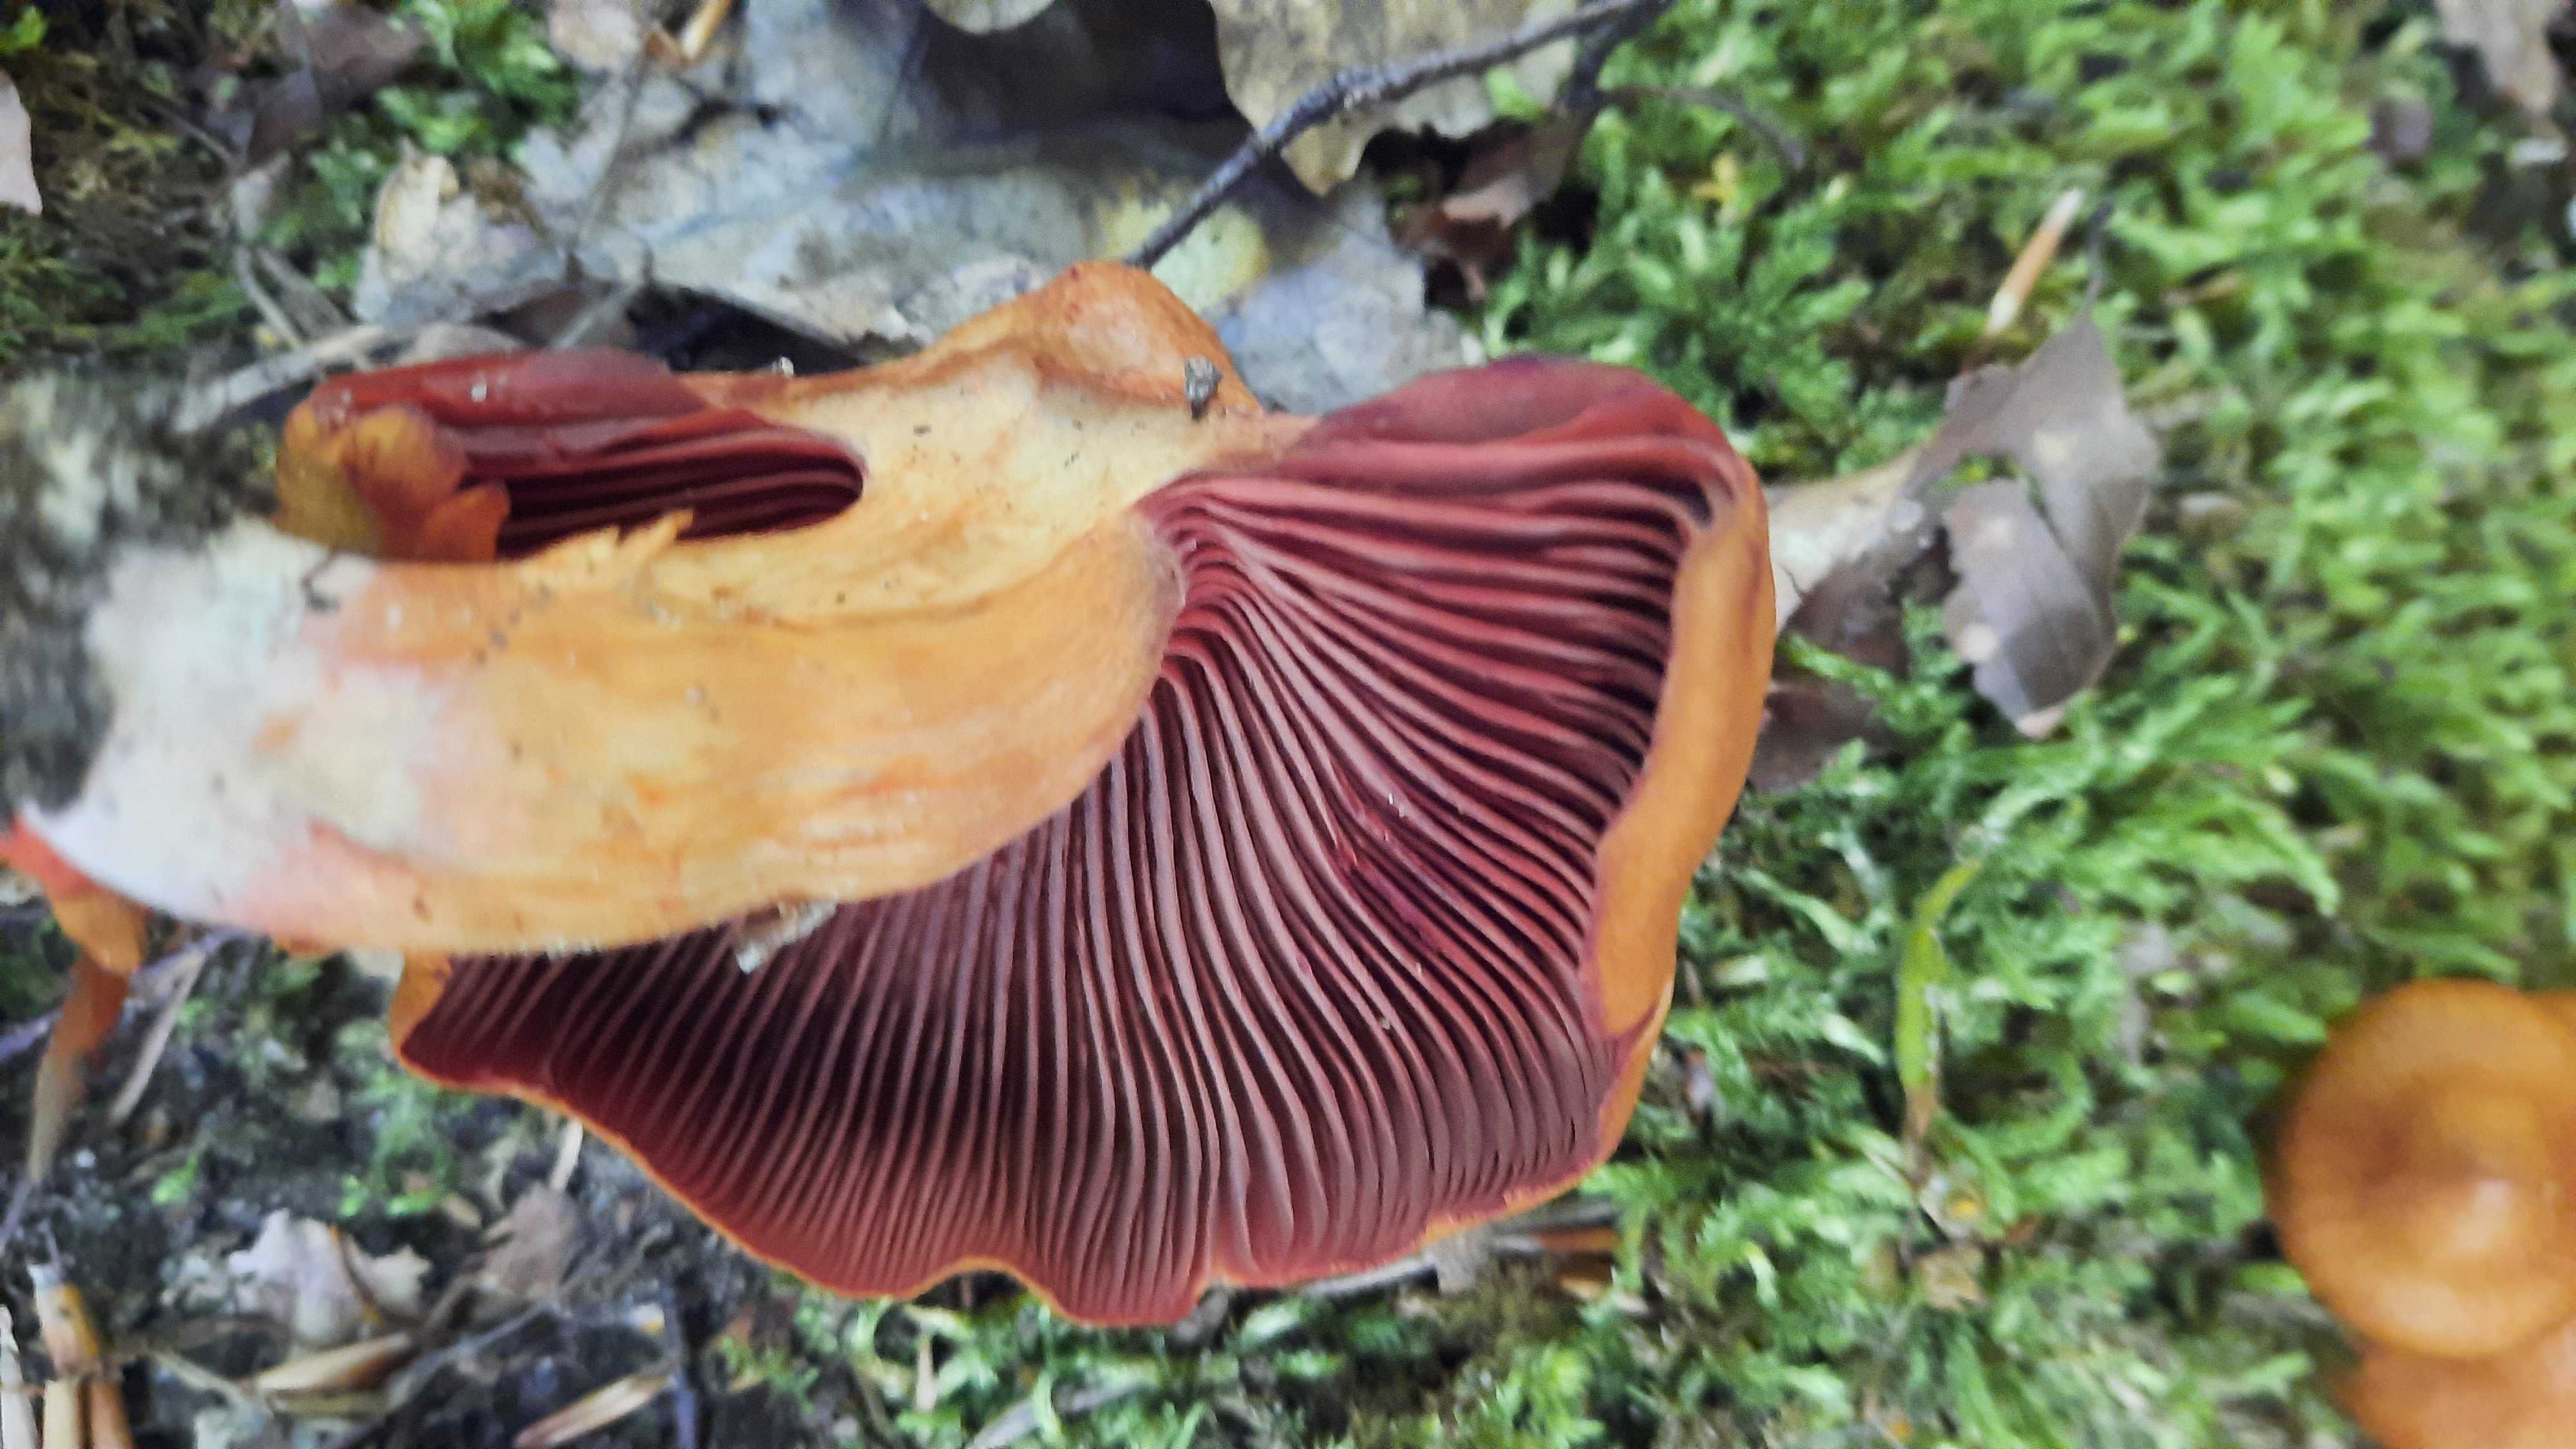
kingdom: Fungi
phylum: Basidiomycota
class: Agaricomycetes
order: Agaricales
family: Cortinariaceae
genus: Cortinarius
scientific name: Cortinarius
